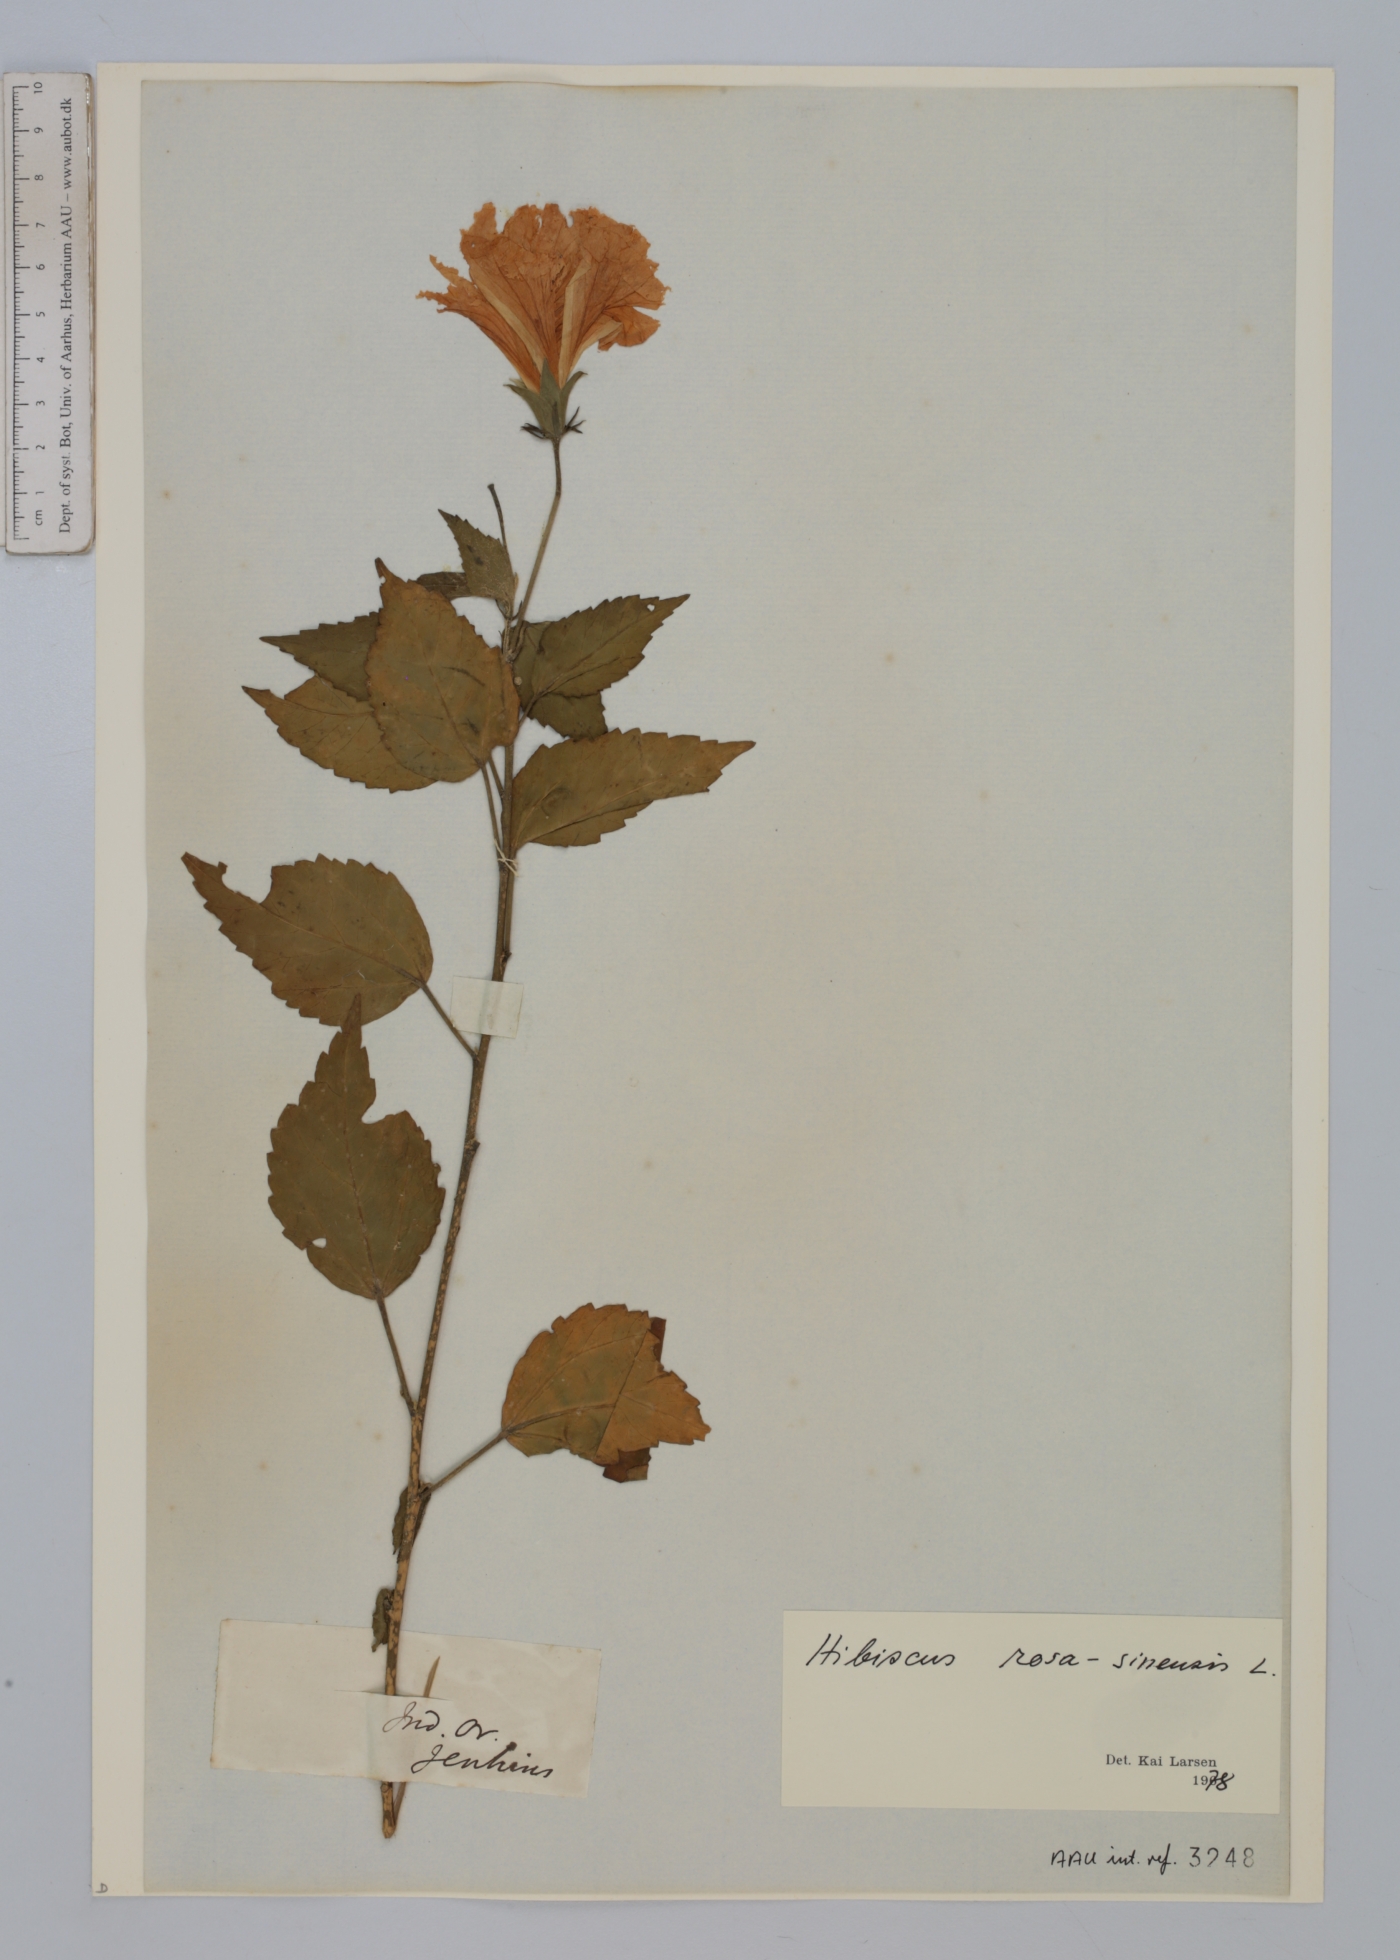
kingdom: Plantae
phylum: Tracheophyta
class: Magnoliopsida
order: Malvales
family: Malvaceae
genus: Hibiscus
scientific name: Hibiscus rosa-sinensis
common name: Hibiscus
